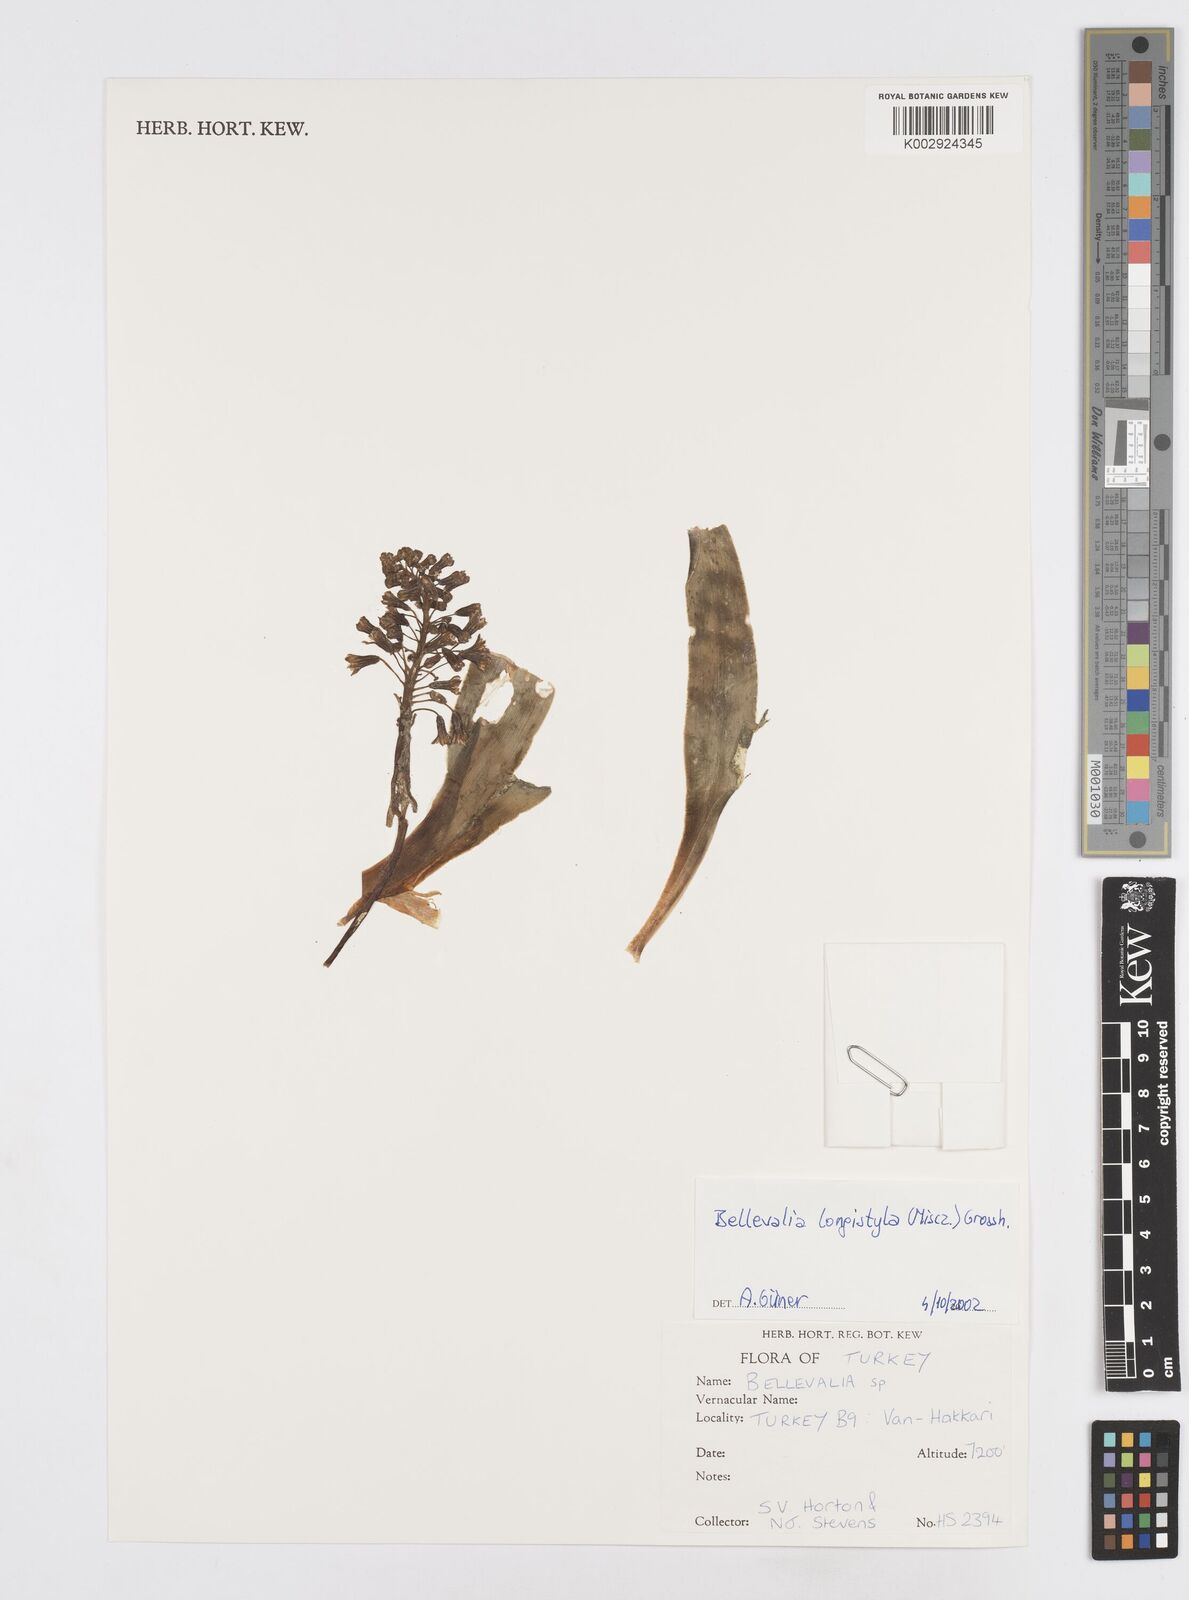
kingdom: Plantae
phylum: Tracheophyta
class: Liliopsida
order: Asparagales
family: Asparagaceae
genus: Bellevalia
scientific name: Bellevalia longistyla
